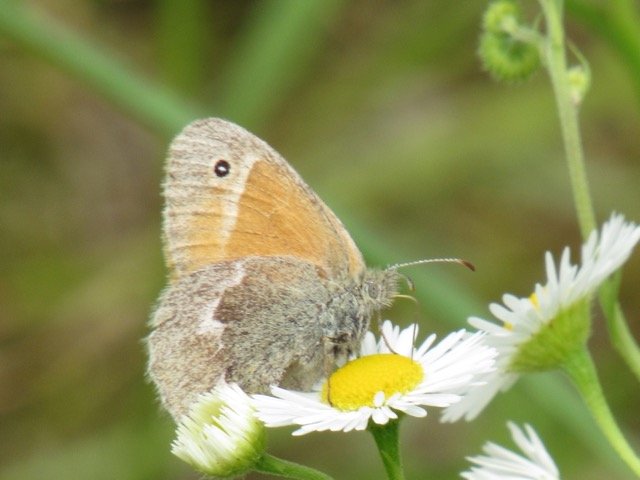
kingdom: Animalia
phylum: Arthropoda
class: Insecta
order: Lepidoptera
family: Nymphalidae
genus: Coenonympha
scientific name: Coenonympha tullia
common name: Large Heath
